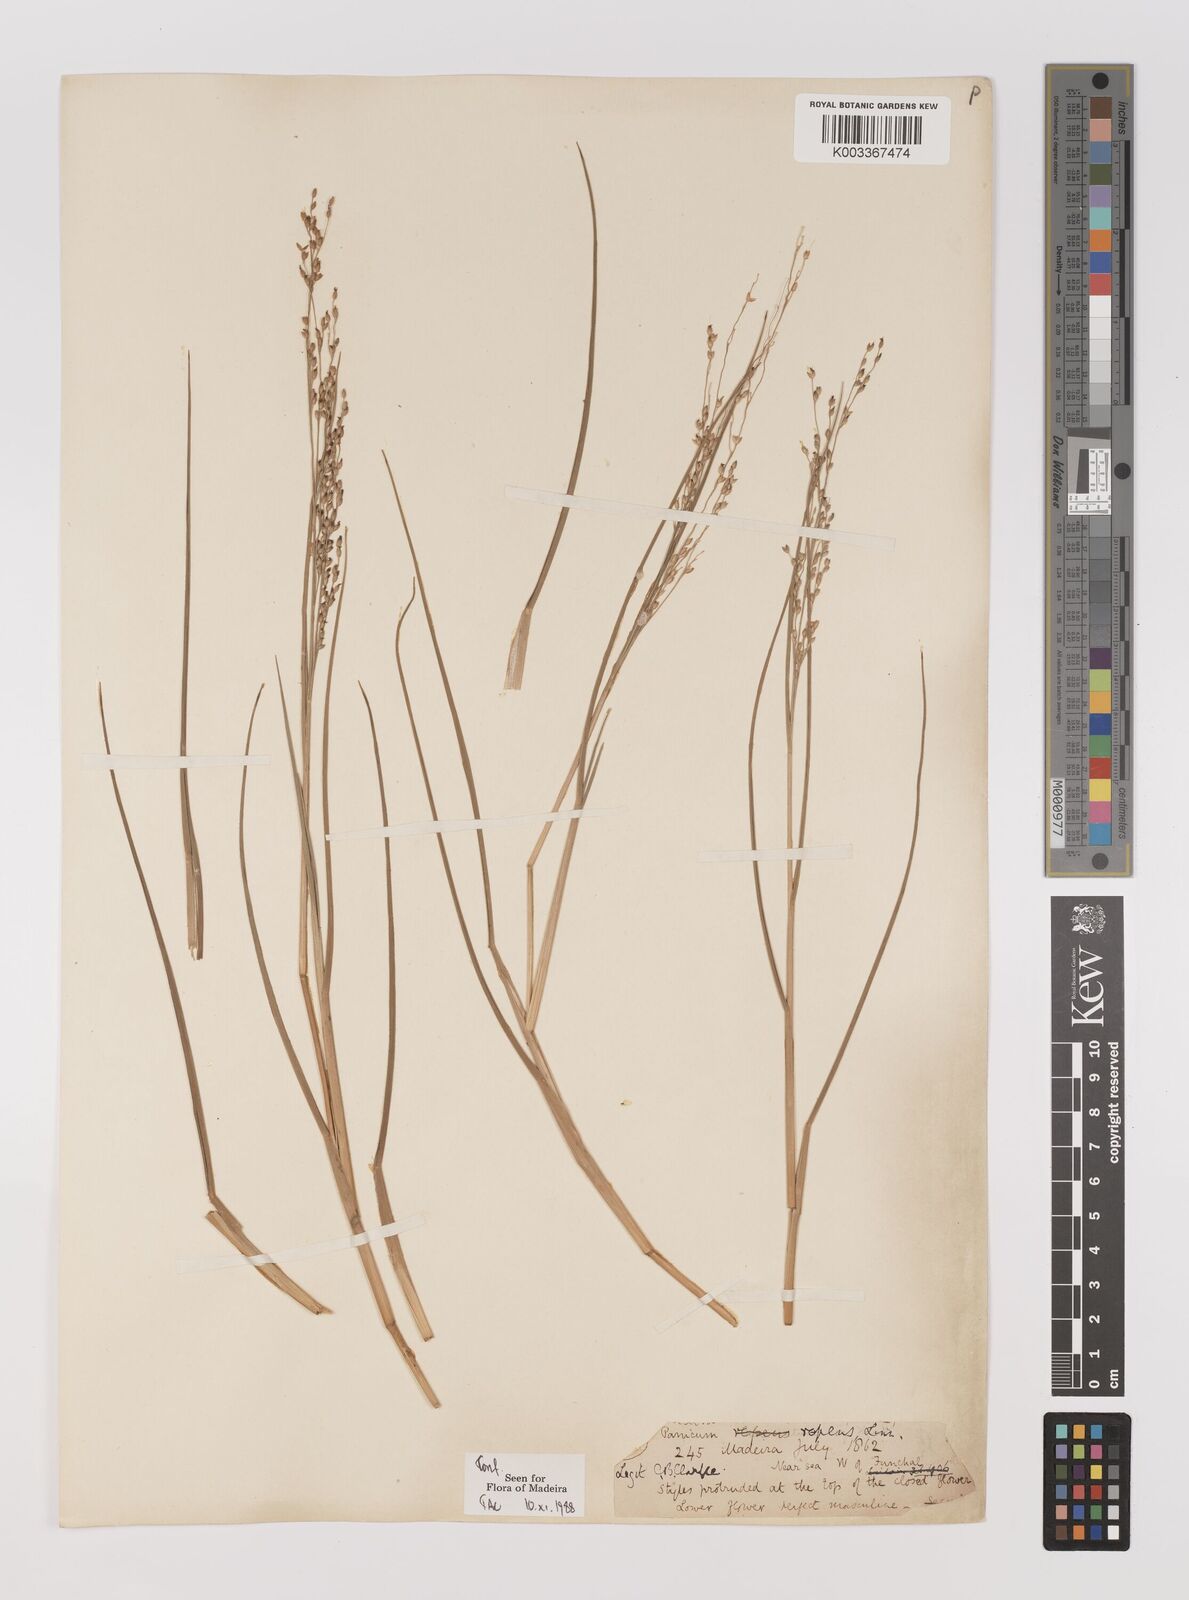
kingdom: Plantae
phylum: Tracheophyta
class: Liliopsida
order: Poales
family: Poaceae
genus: Panicum
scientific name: Panicum repens
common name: Torpedo grass
